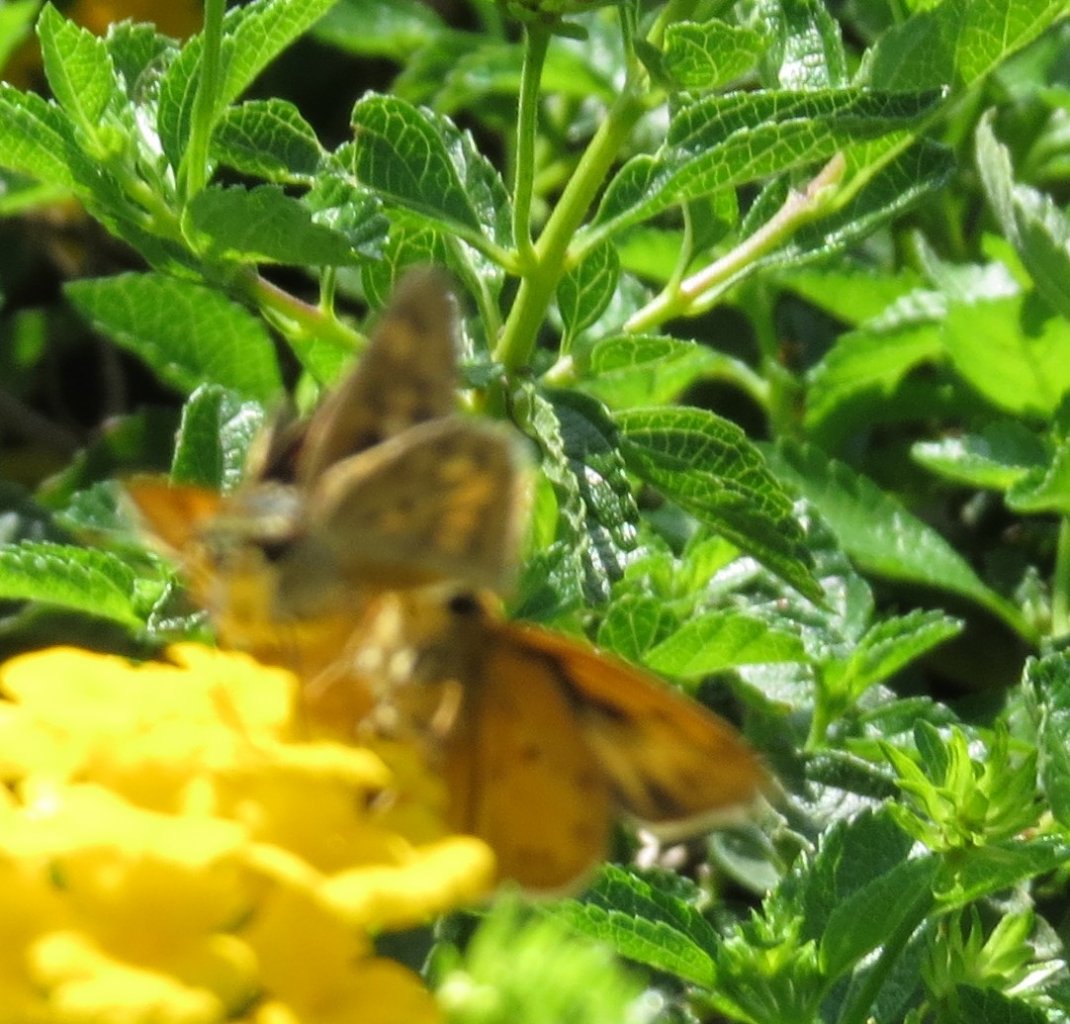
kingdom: Animalia
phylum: Arthropoda
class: Insecta
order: Lepidoptera
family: Hesperiidae
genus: Hylephila
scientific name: Hylephila phyleus
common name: Fiery Skipper
